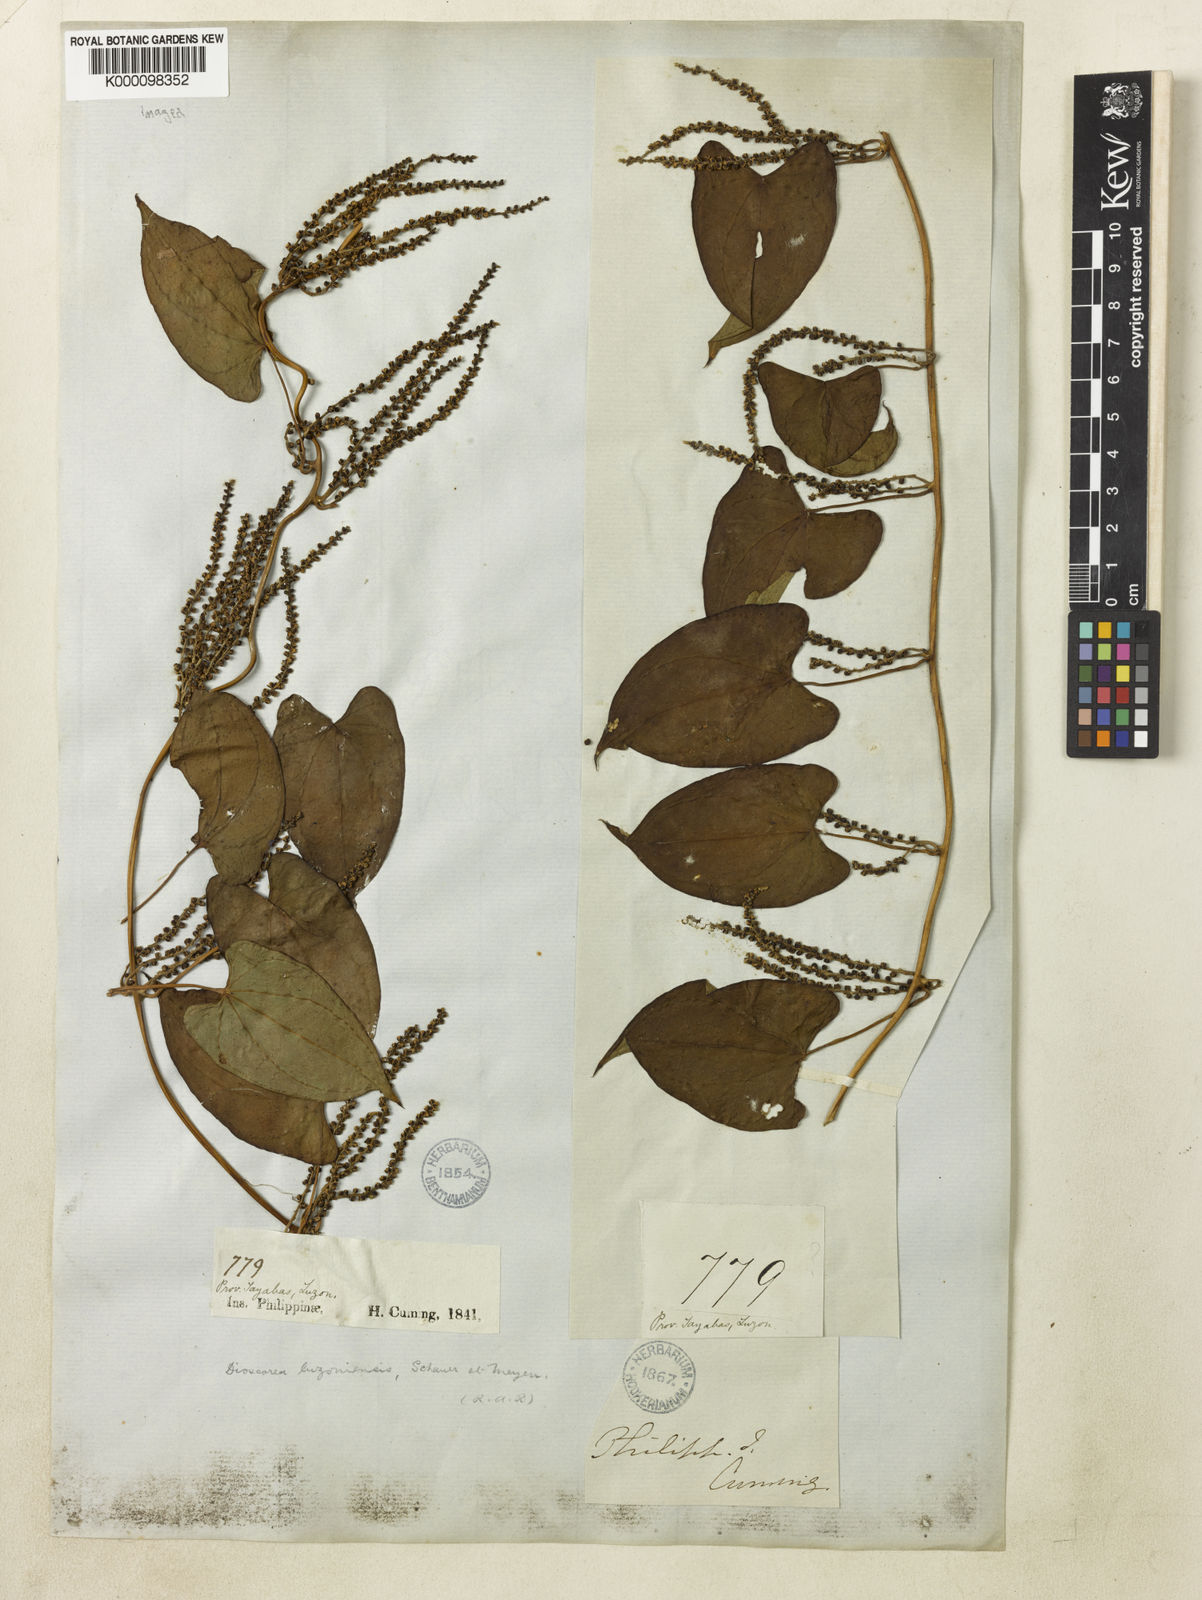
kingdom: Plantae
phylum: Tracheophyta
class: Liliopsida
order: Dioscoreales
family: Dioscoreaceae
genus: Dioscorea
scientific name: Dioscorea luzonensis
